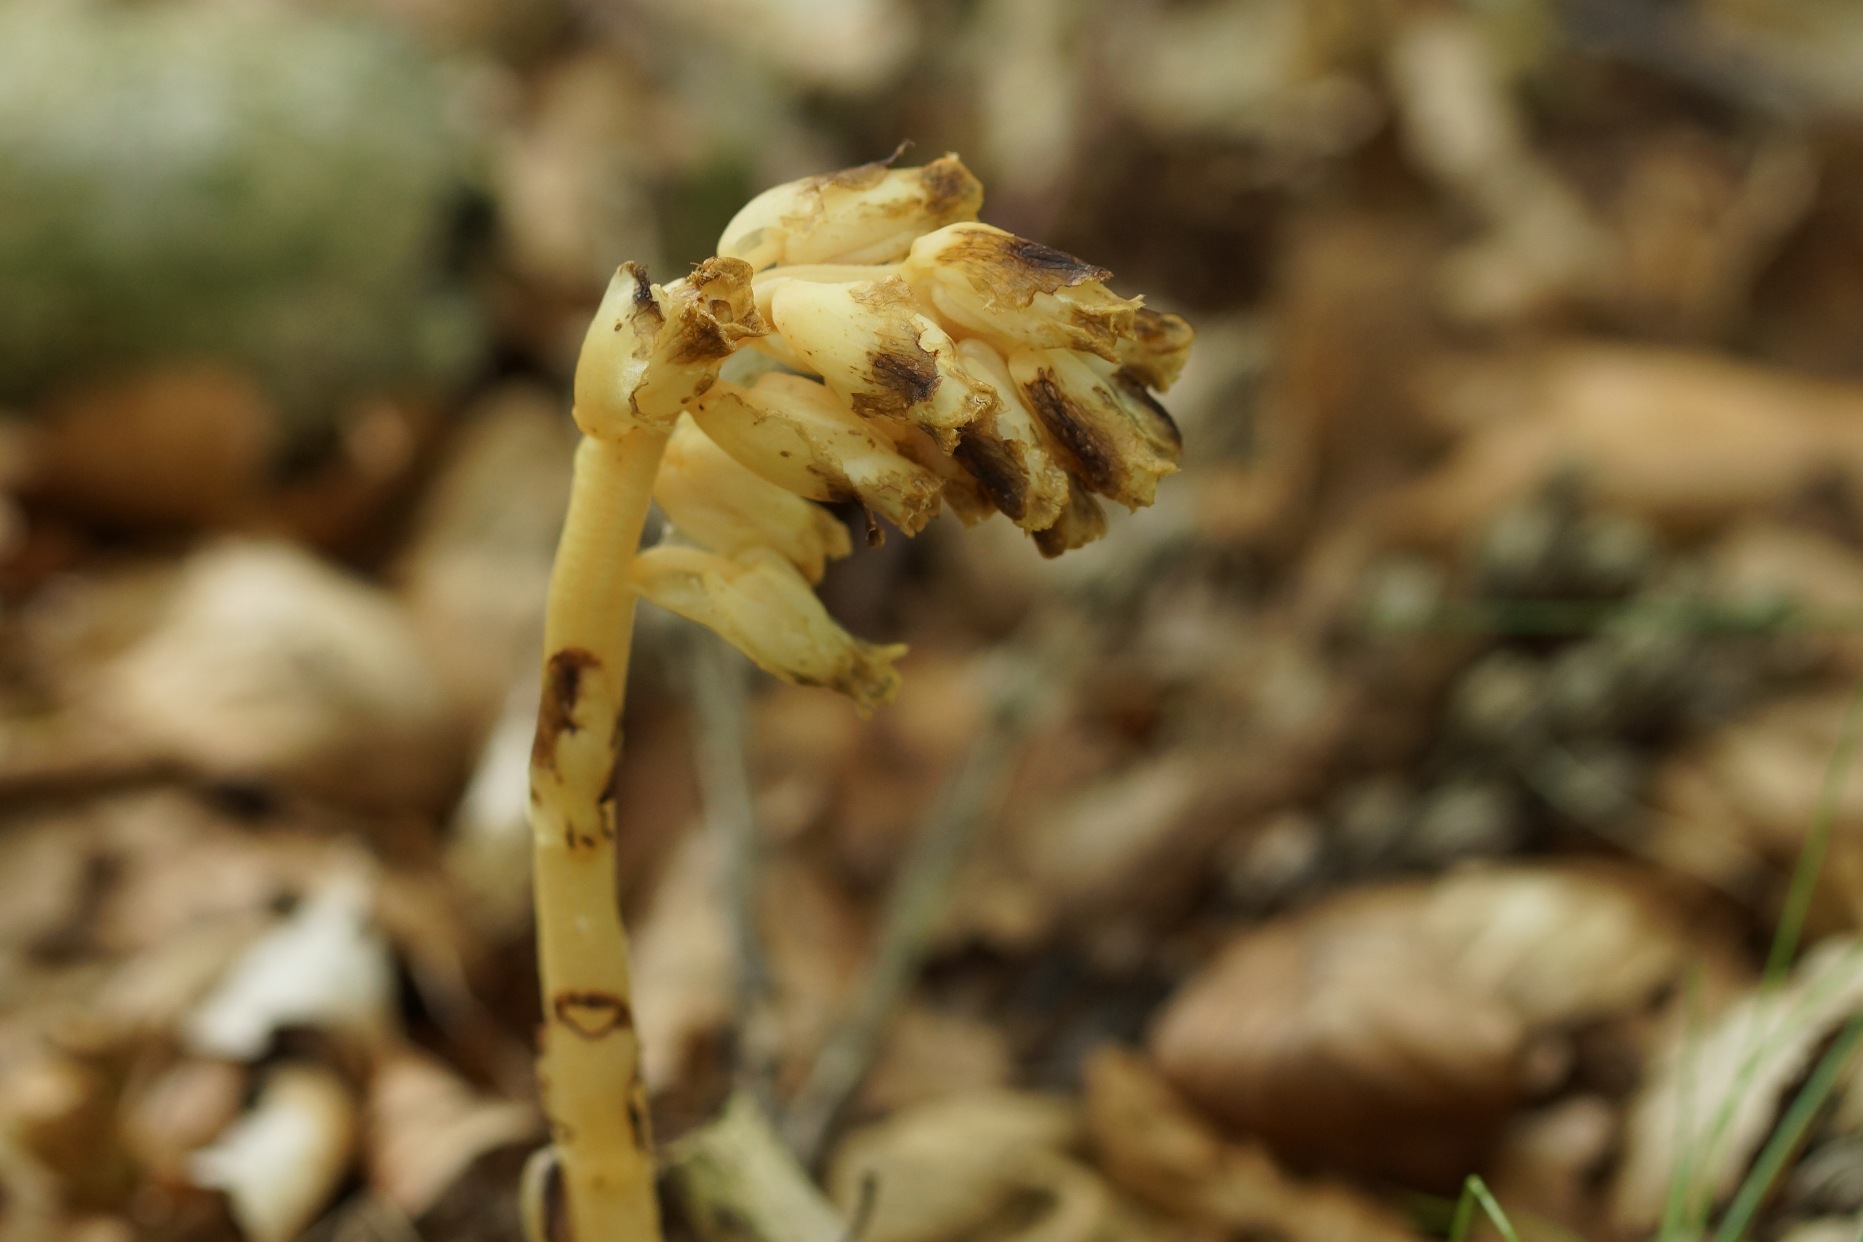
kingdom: Plantae
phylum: Tracheophyta
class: Magnoliopsida
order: Ericales
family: Ericaceae
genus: Hypopitys
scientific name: Hypopitys monotropa
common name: Snylterod
